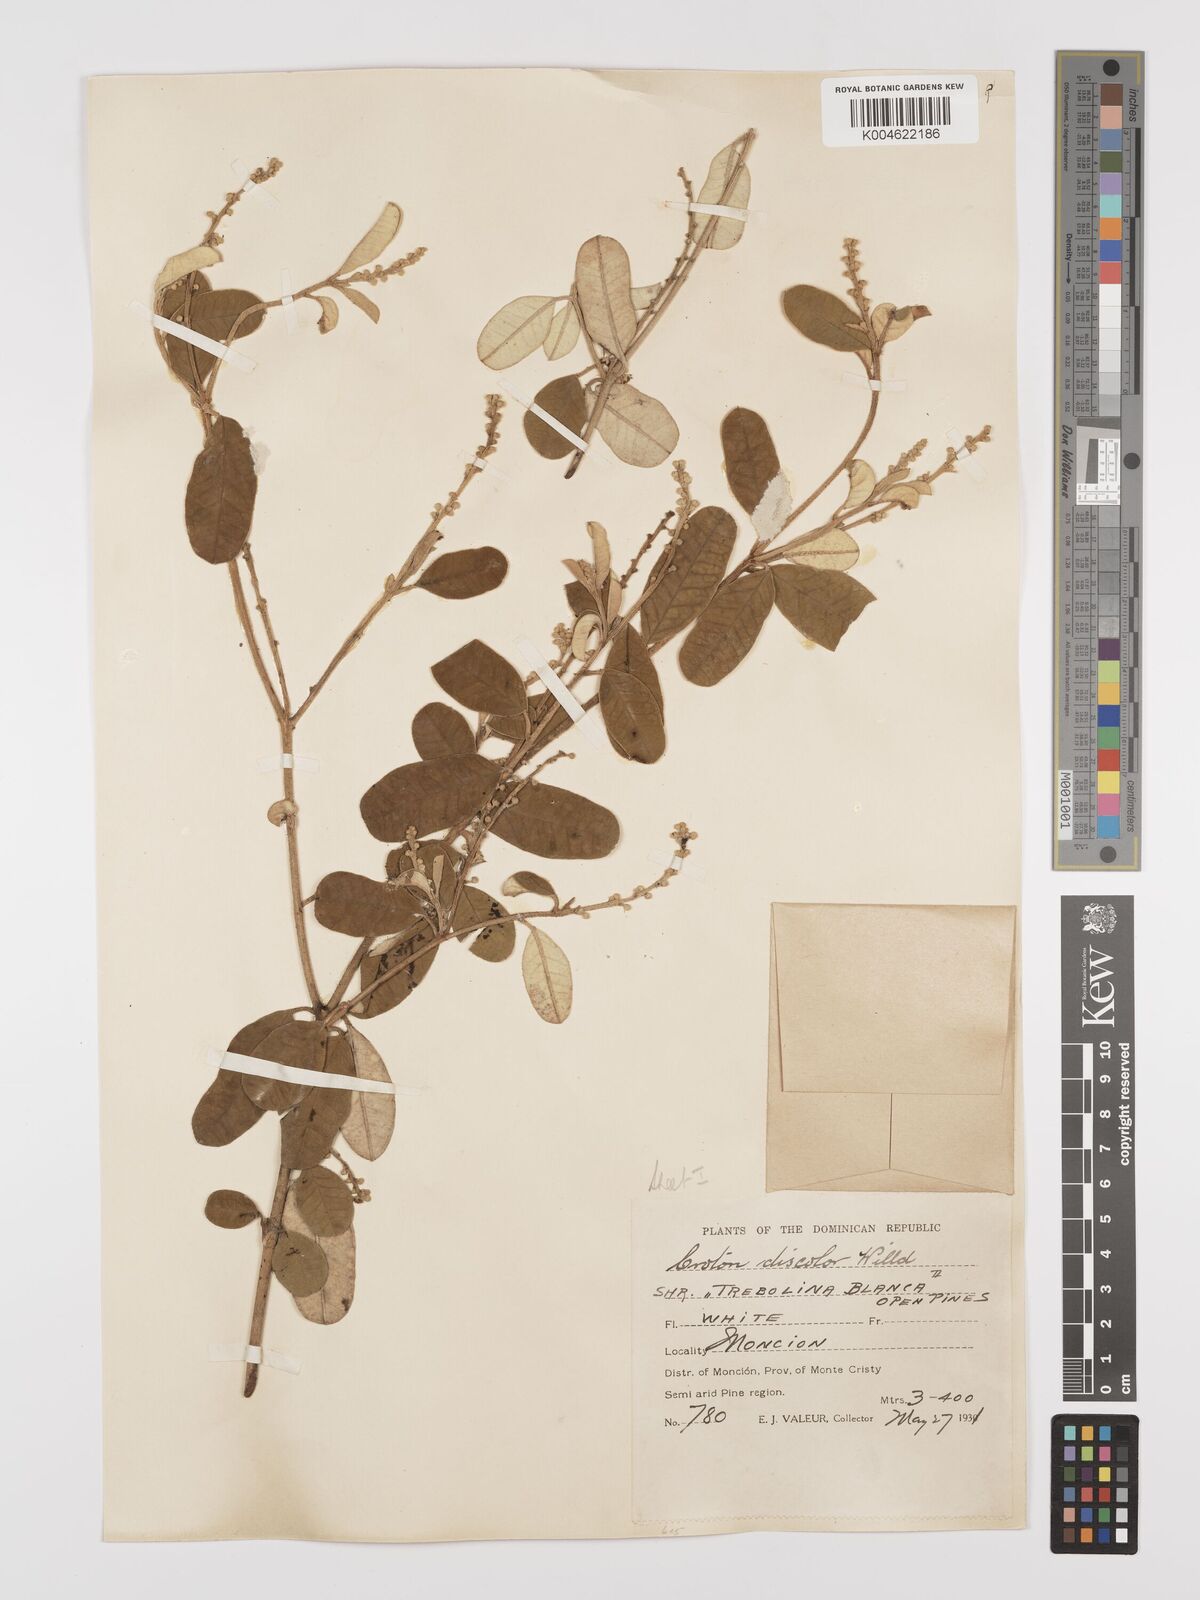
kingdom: Plantae
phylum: Tracheophyta
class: Magnoliopsida
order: Malpighiales
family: Euphorbiaceae
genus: Croton
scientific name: Croton
